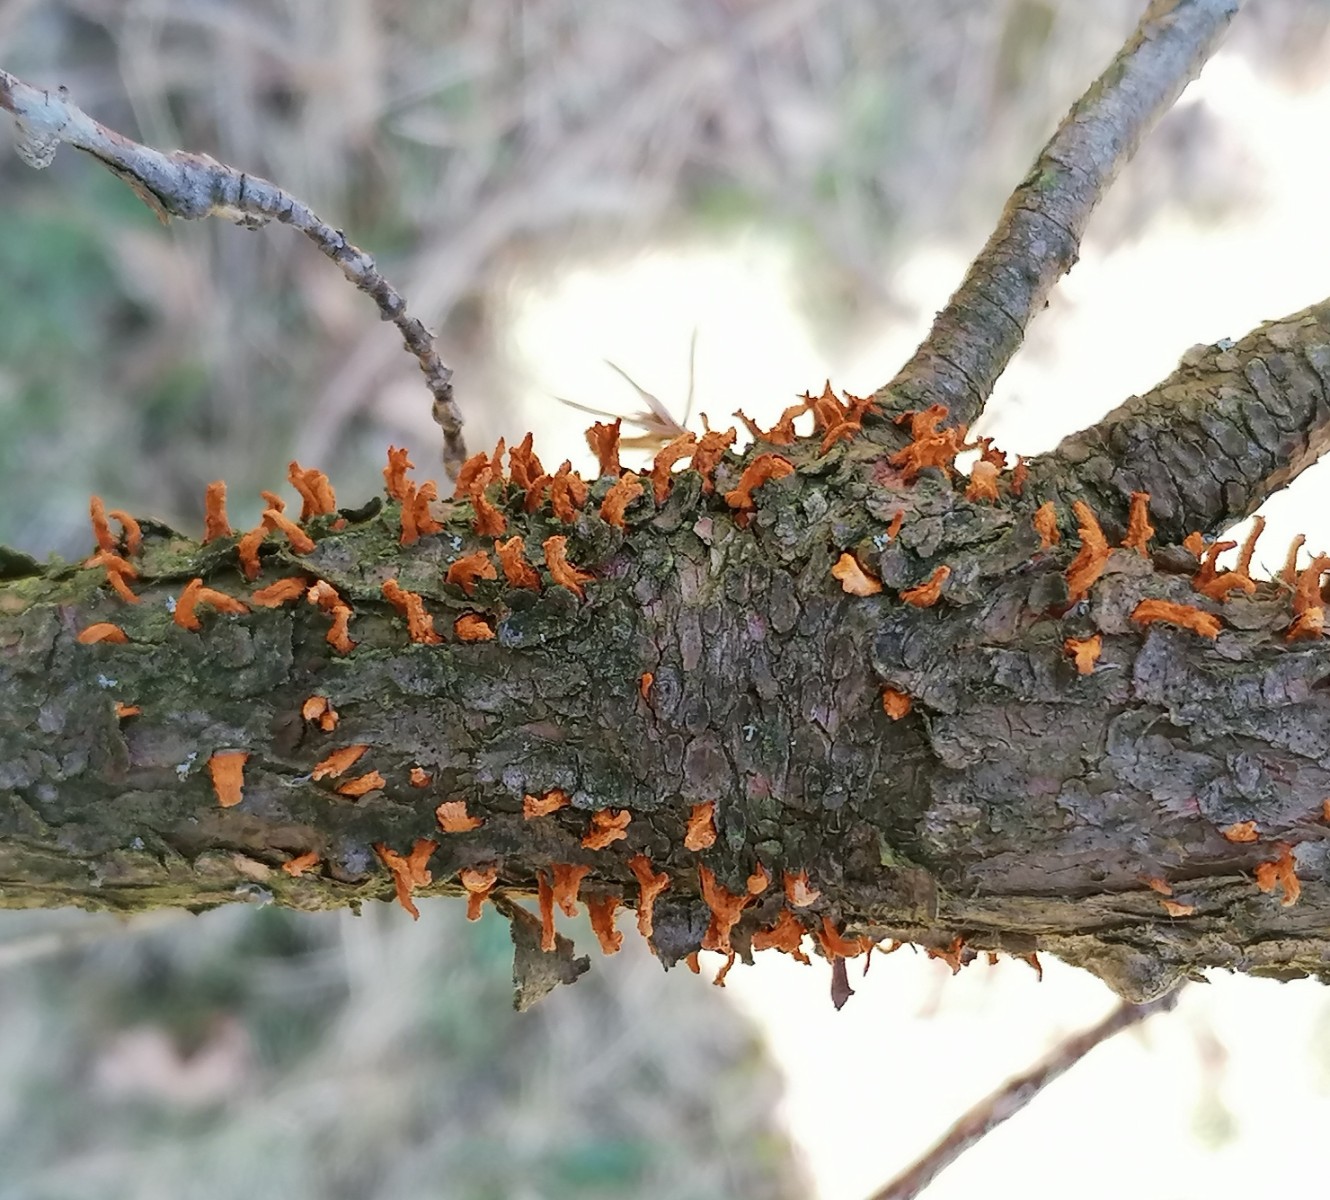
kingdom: Fungi
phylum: Basidiomycota
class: Pucciniomycetes
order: Pucciniales
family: Gymnosporangiaceae
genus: Gymnosporangium
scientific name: Gymnosporangium clavariiforme
